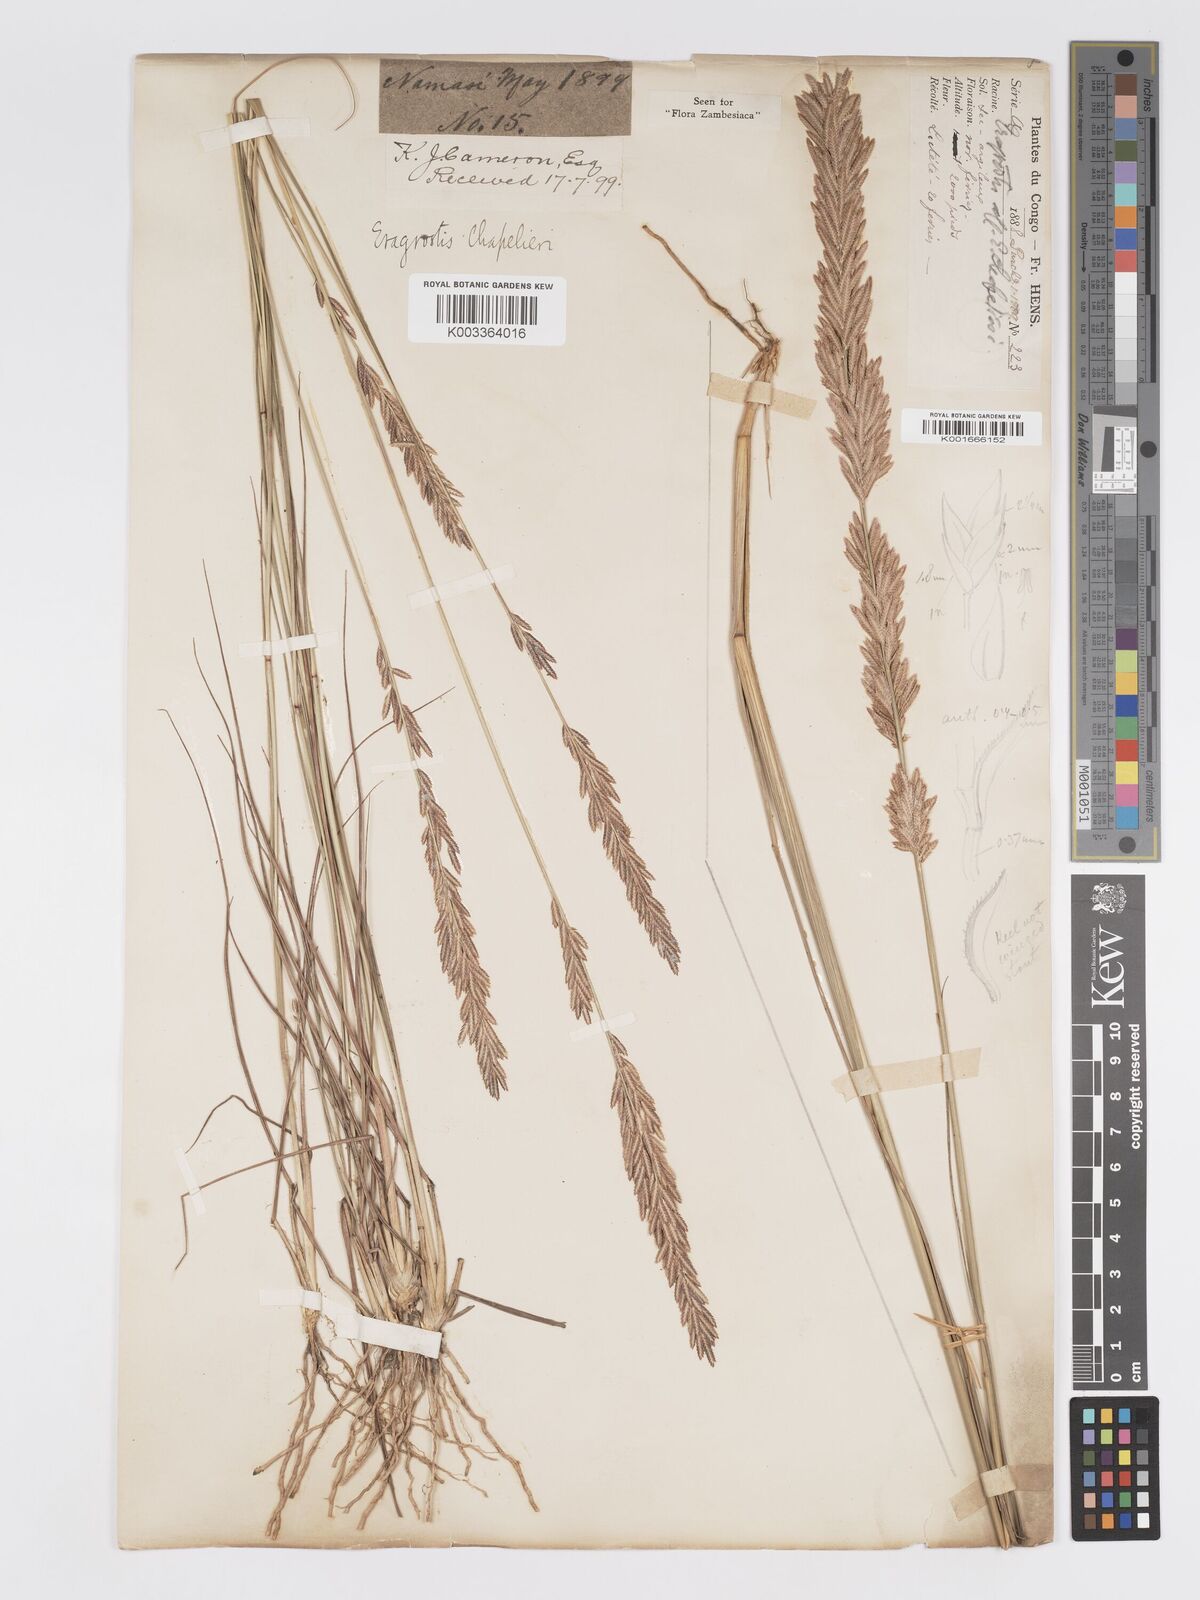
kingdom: Plantae
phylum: Tracheophyta
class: Liliopsida
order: Poales
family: Poaceae
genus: Eragrostis
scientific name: Eragrostis chapelieri
